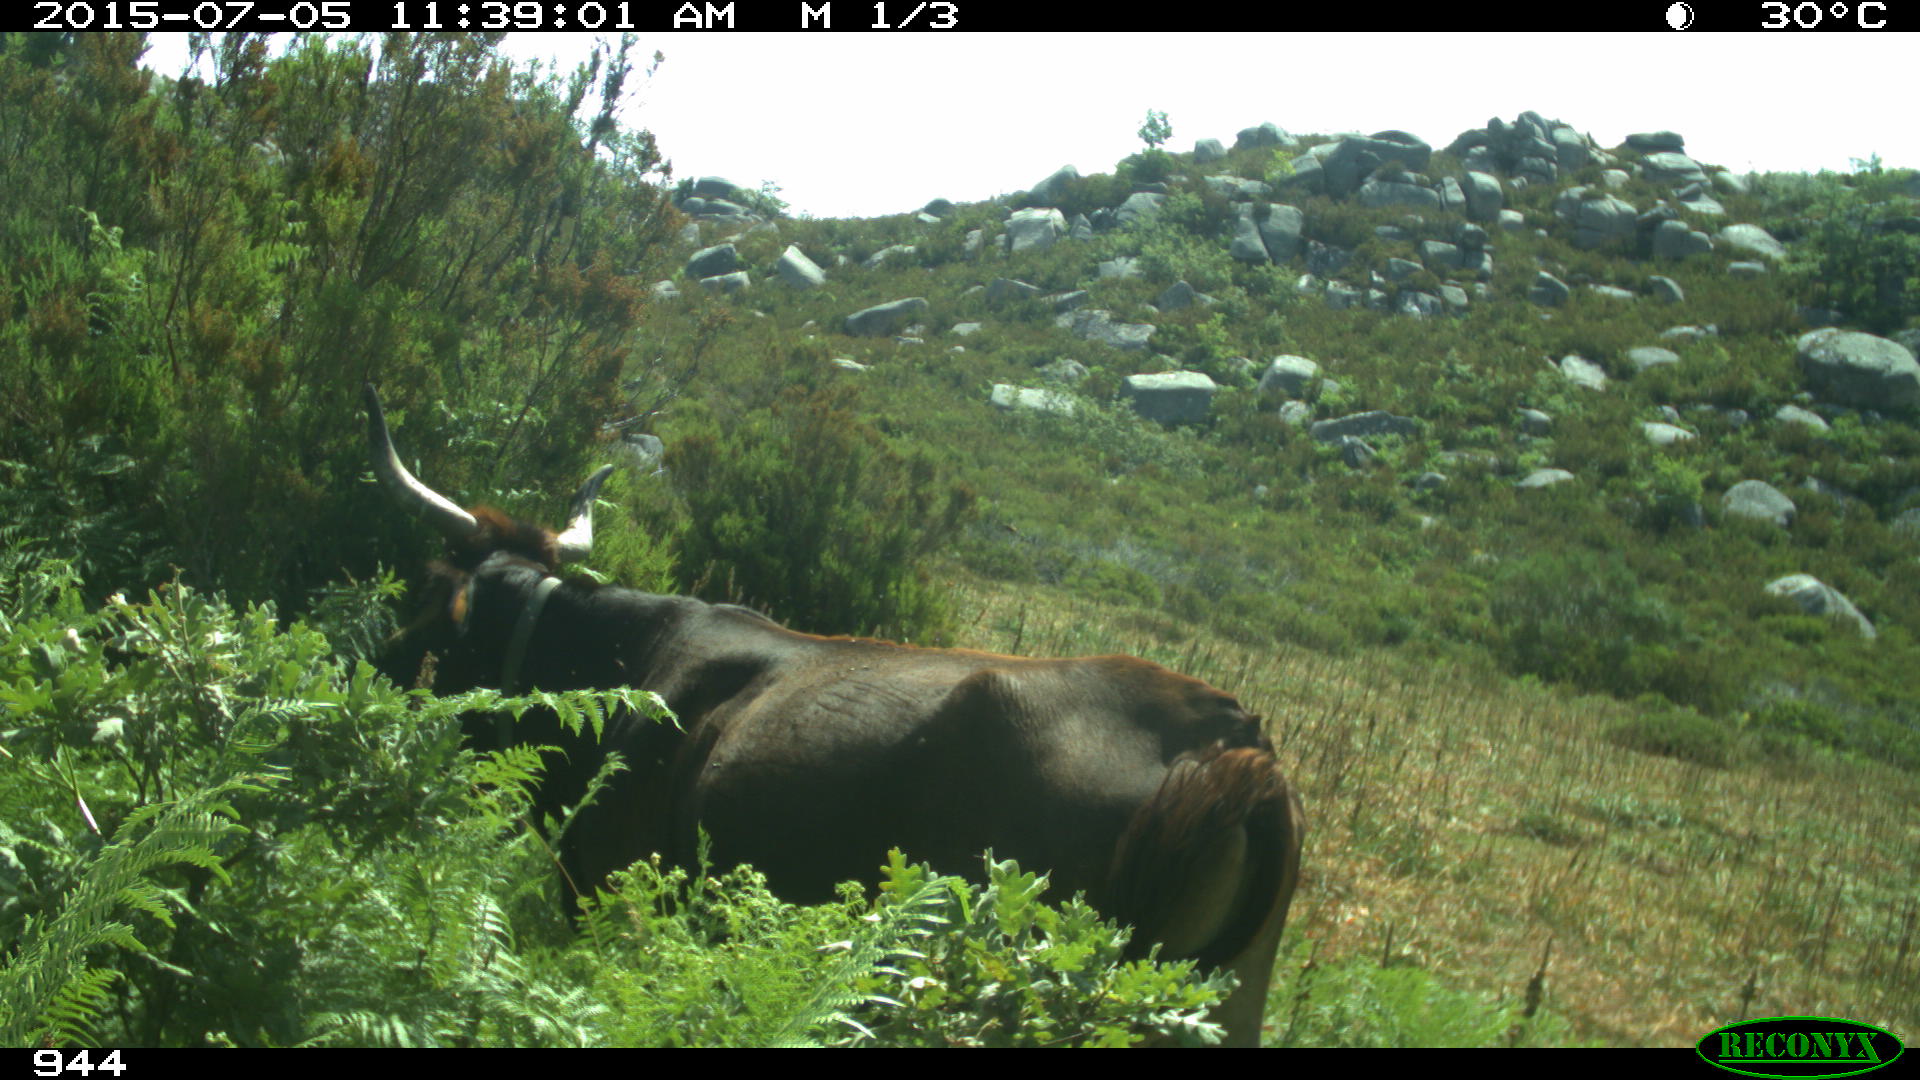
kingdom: Animalia
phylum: Chordata
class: Mammalia
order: Artiodactyla
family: Bovidae
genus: Bos
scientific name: Bos taurus
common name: Domesticated cattle
